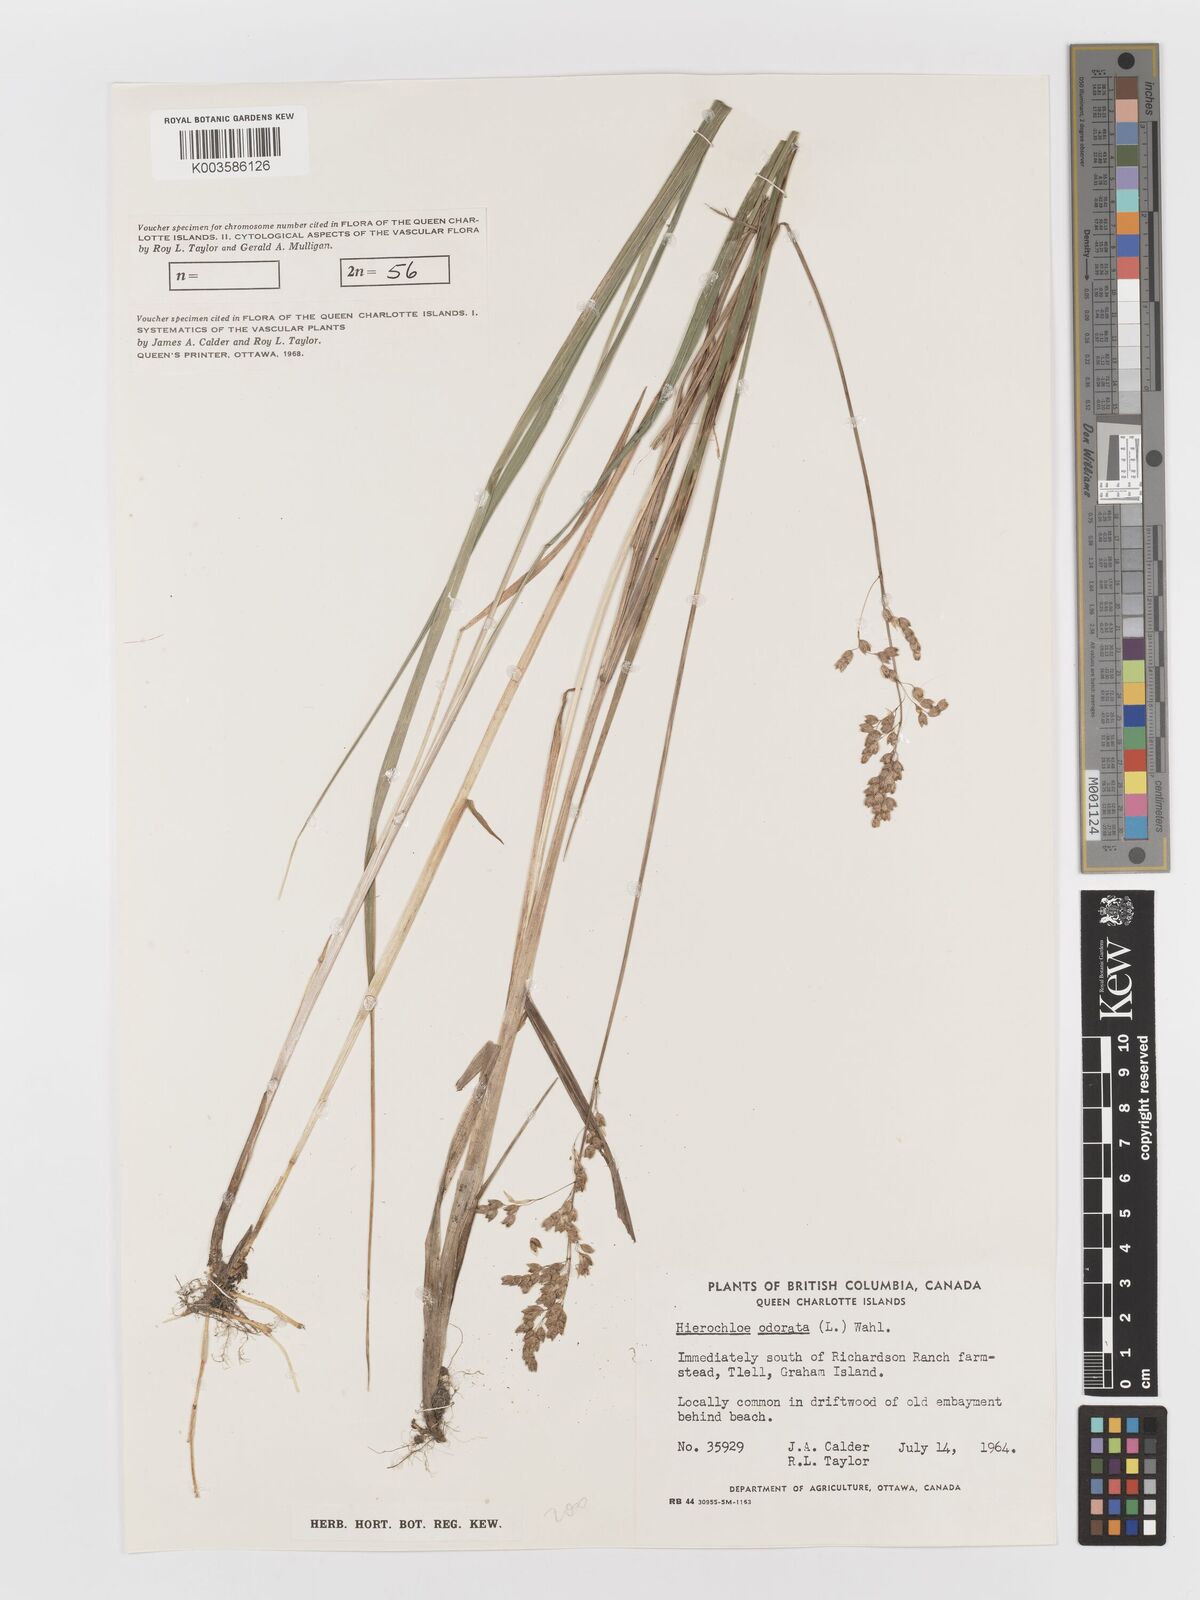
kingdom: Plantae
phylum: Tracheophyta
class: Liliopsida
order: Poales
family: Poaceae
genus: Anthoxanthum
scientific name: Anthoxanthum nitens
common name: Holy grass
